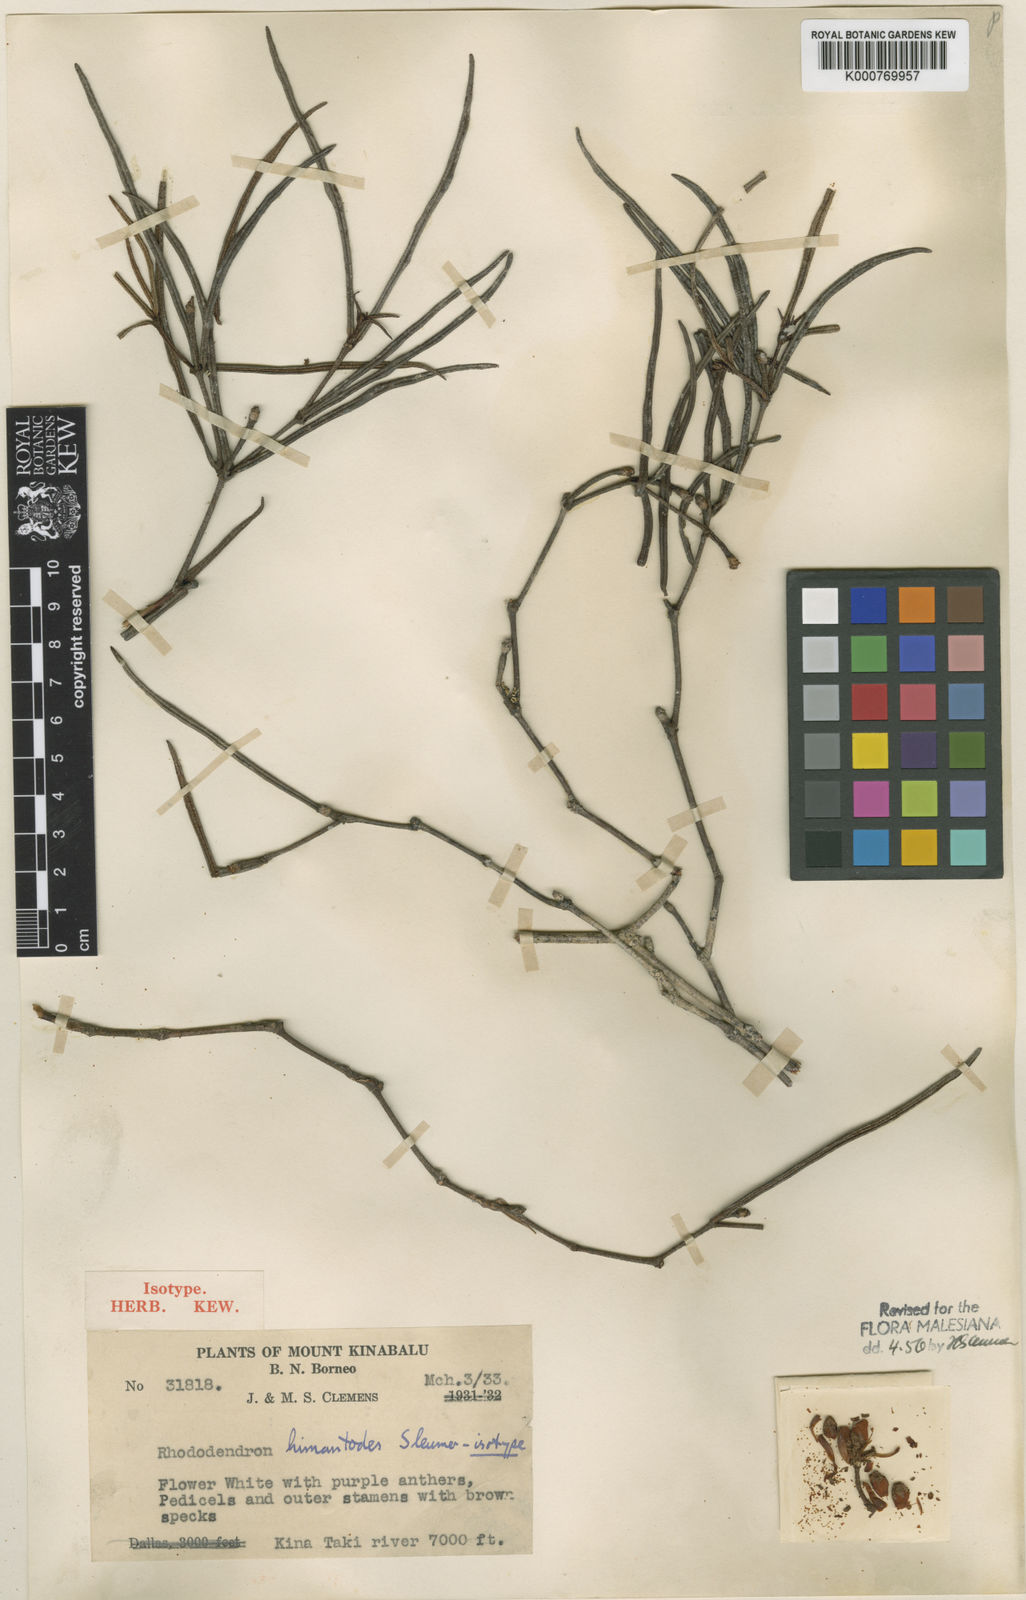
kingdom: Plantae
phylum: Tracheophyta
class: Magnoliopsida
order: Ericales
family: Ericaceae
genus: Rhododendron
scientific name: Rhododendron himantodes
